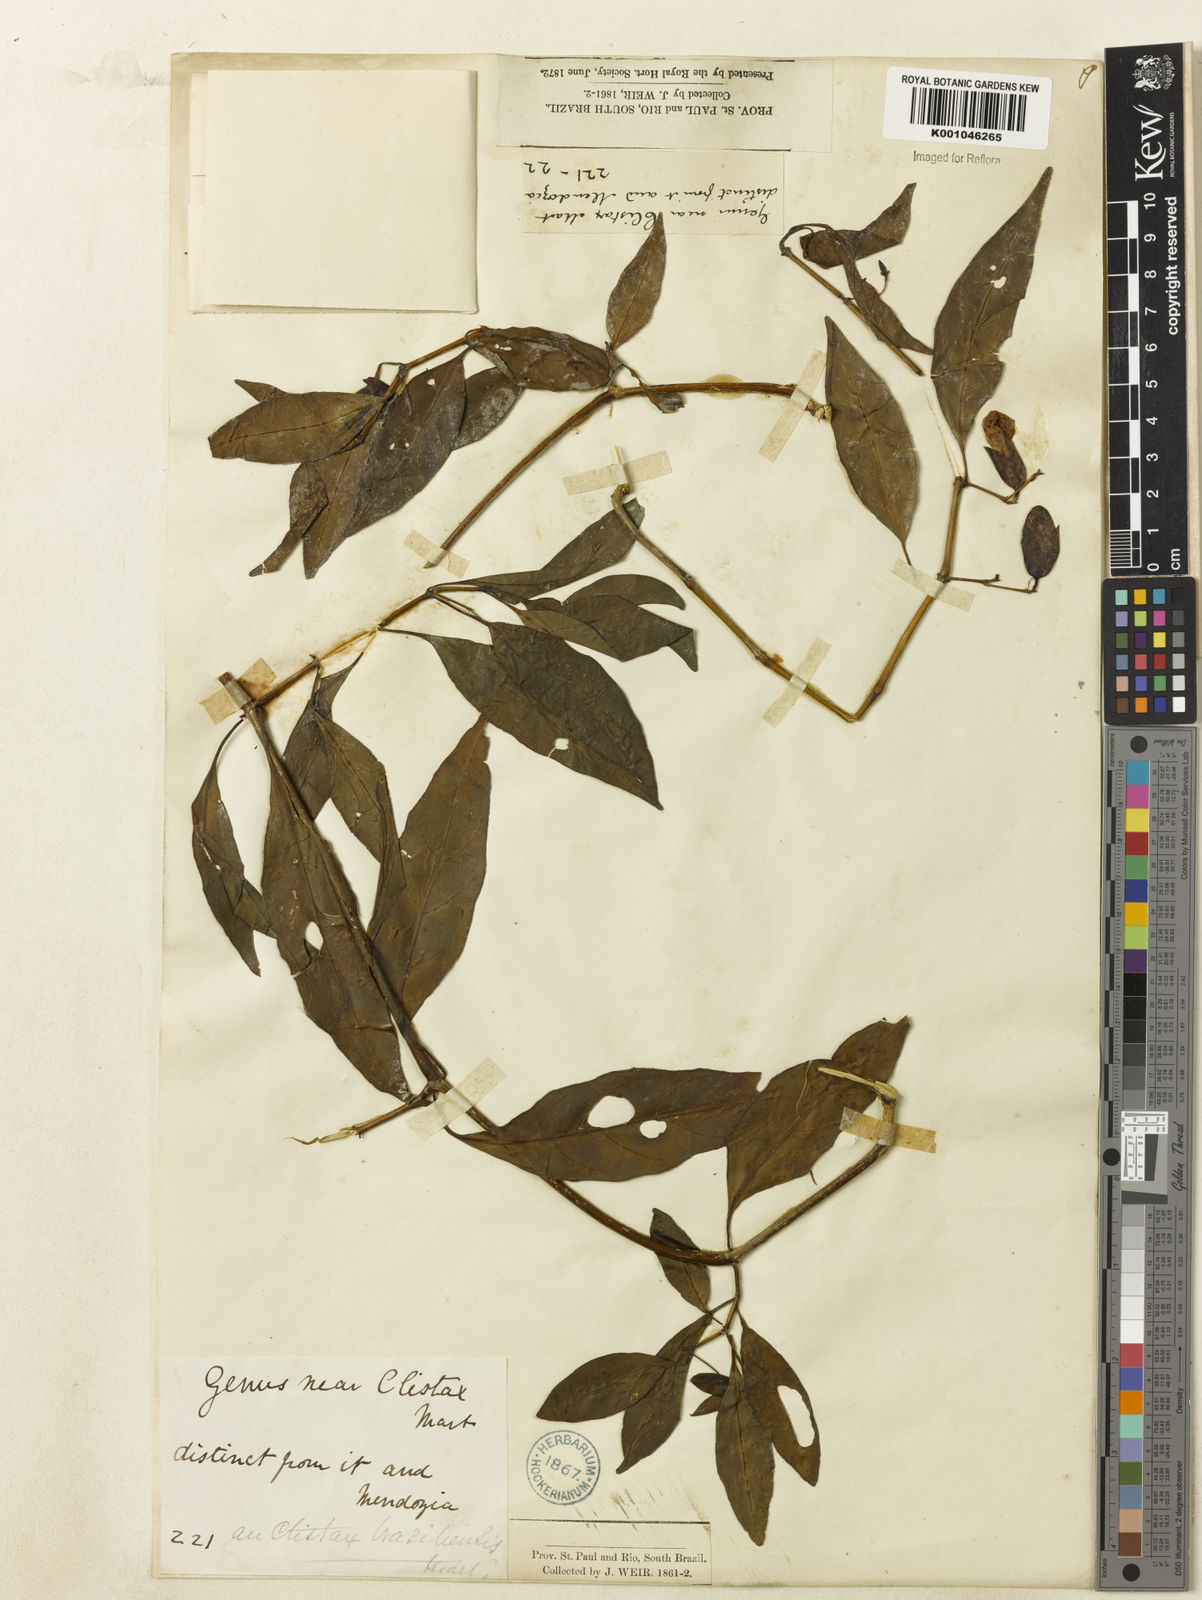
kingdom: Plantae
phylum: Tracheophyta
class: Magnoliopsida
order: Lamiales
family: Acanthaceae
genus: Clistax
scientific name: Clistax brasiliensis
